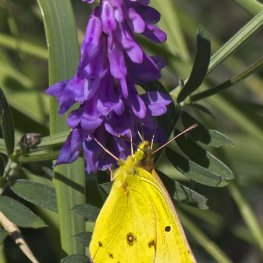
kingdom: Animalia
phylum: Arthropoda
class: Insecta
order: Lepidoptera
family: Pieridae
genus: Colias
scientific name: Colias eurytheme
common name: Orange Sulphur
